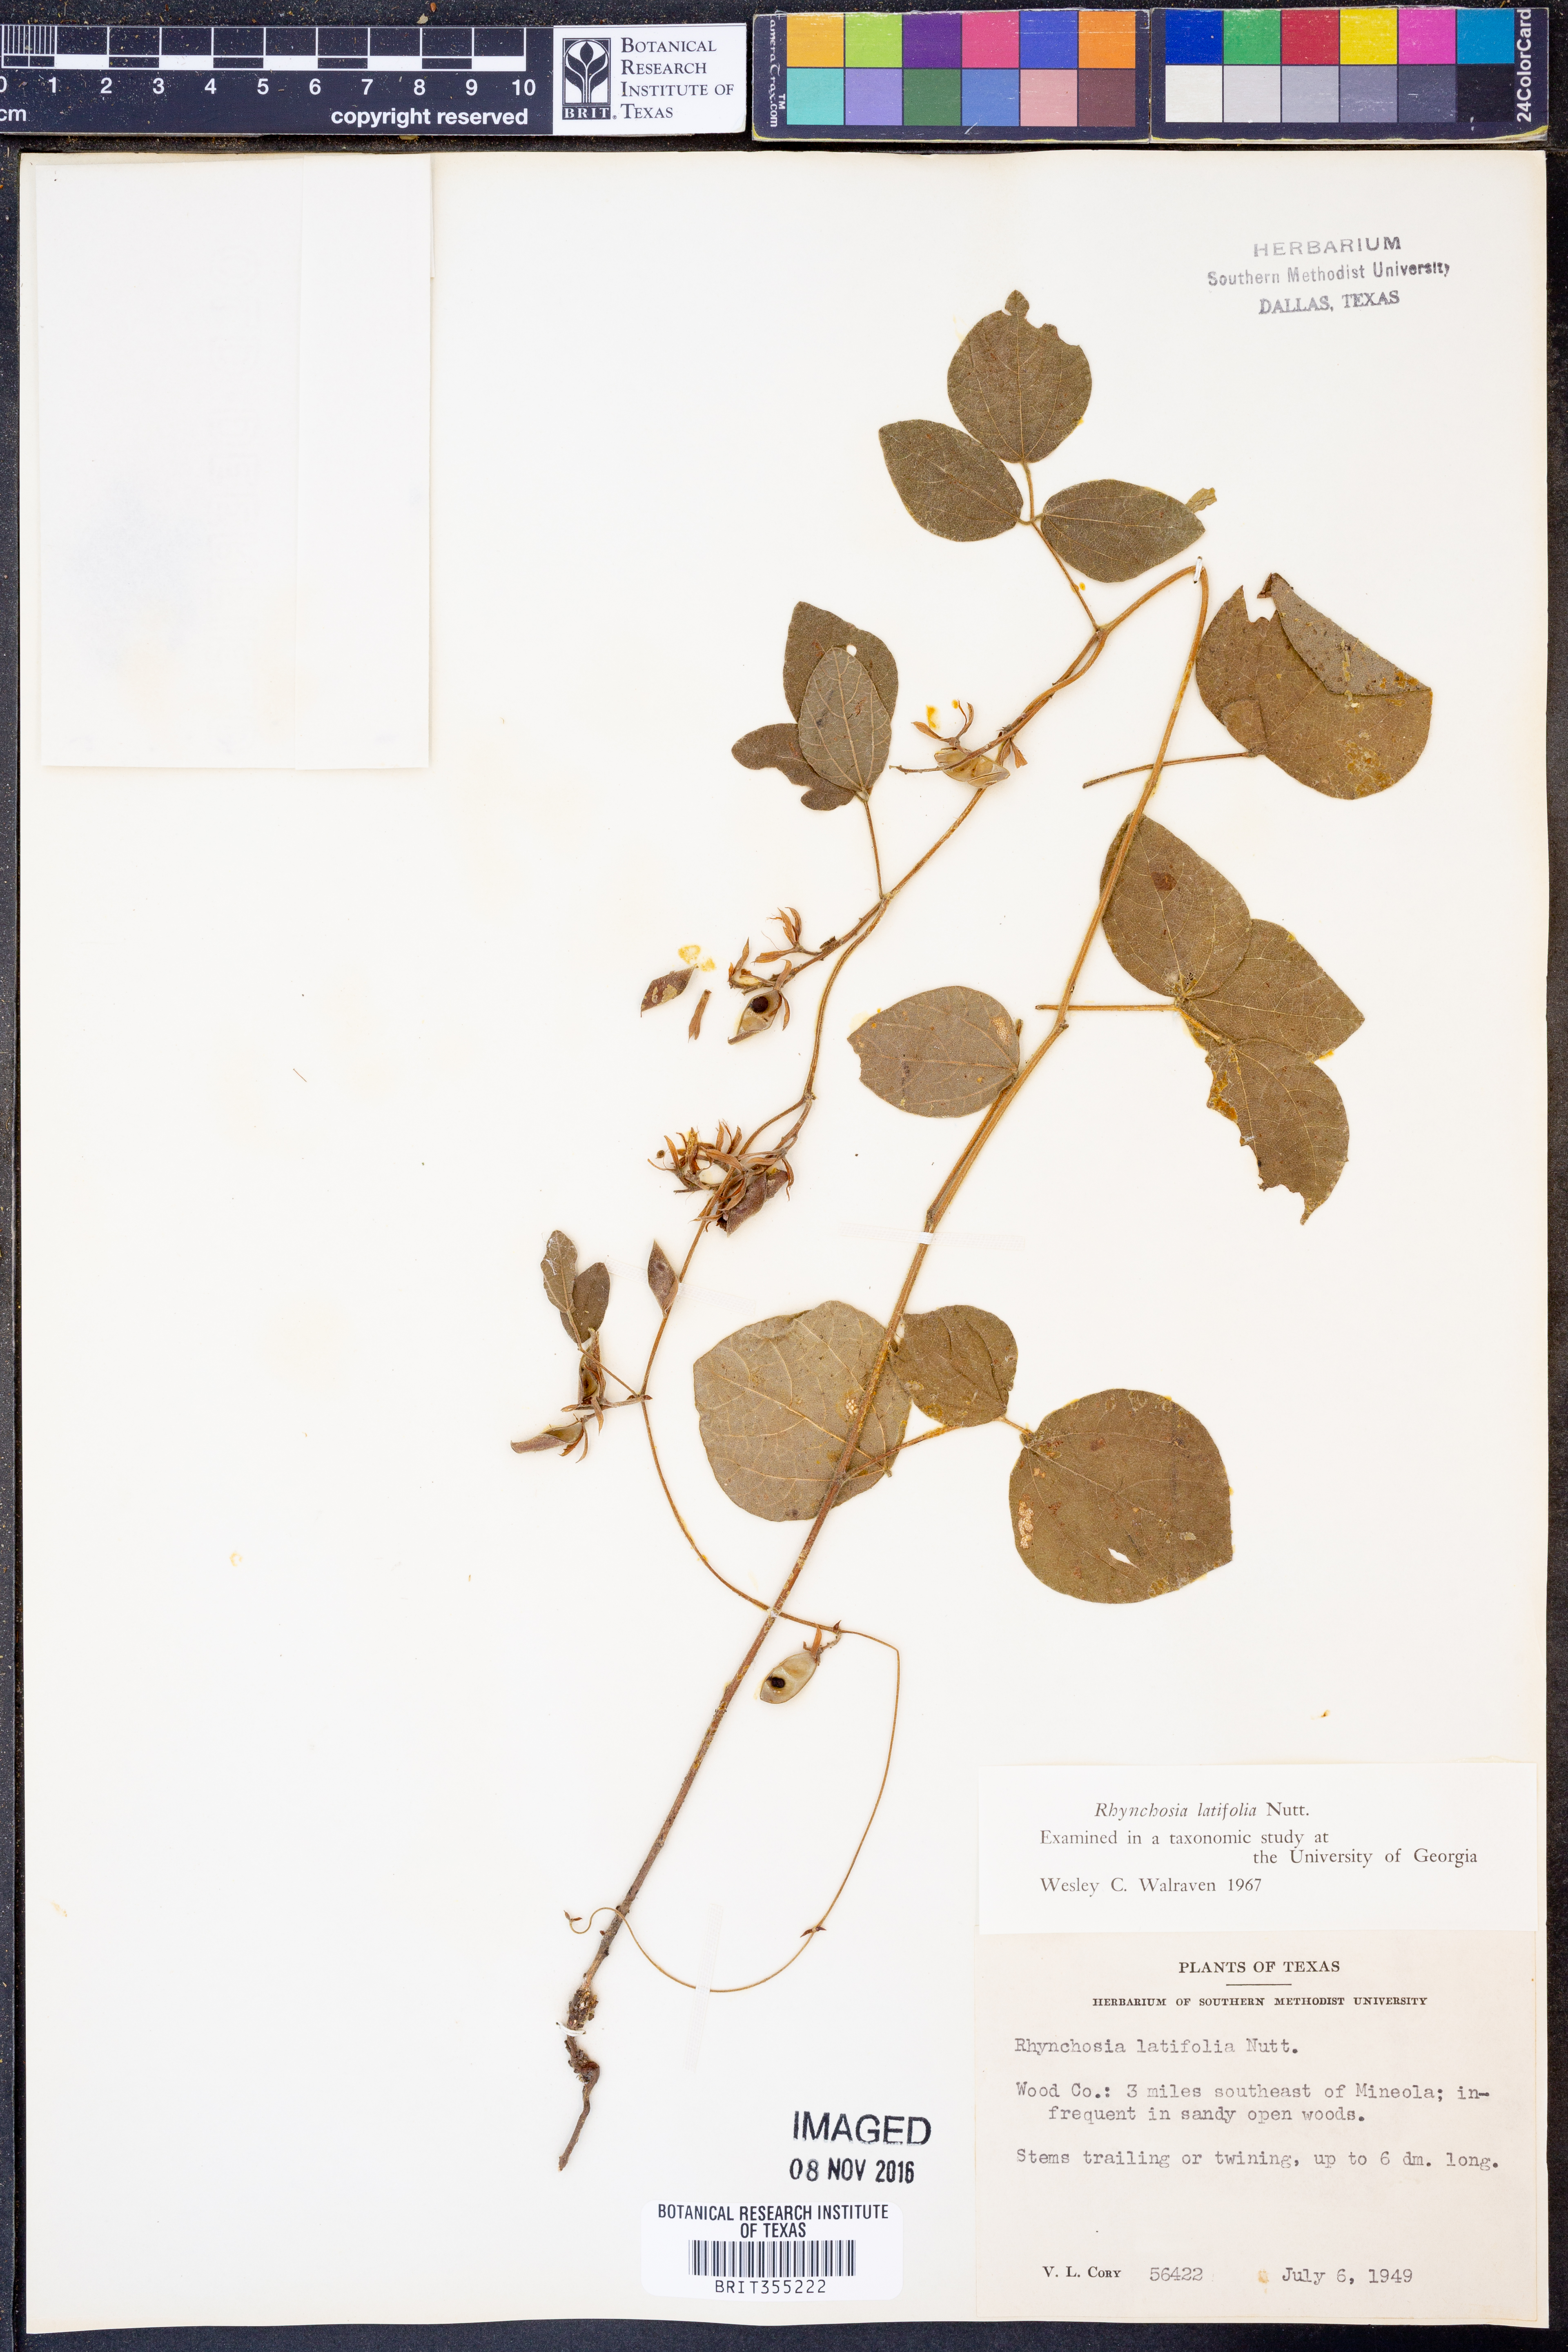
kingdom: Plantae
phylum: Tracheophyta
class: Magnoliopsida
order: Fabales
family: Fabaceae
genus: Rhynchosia
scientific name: Rhynchosia latifolia
